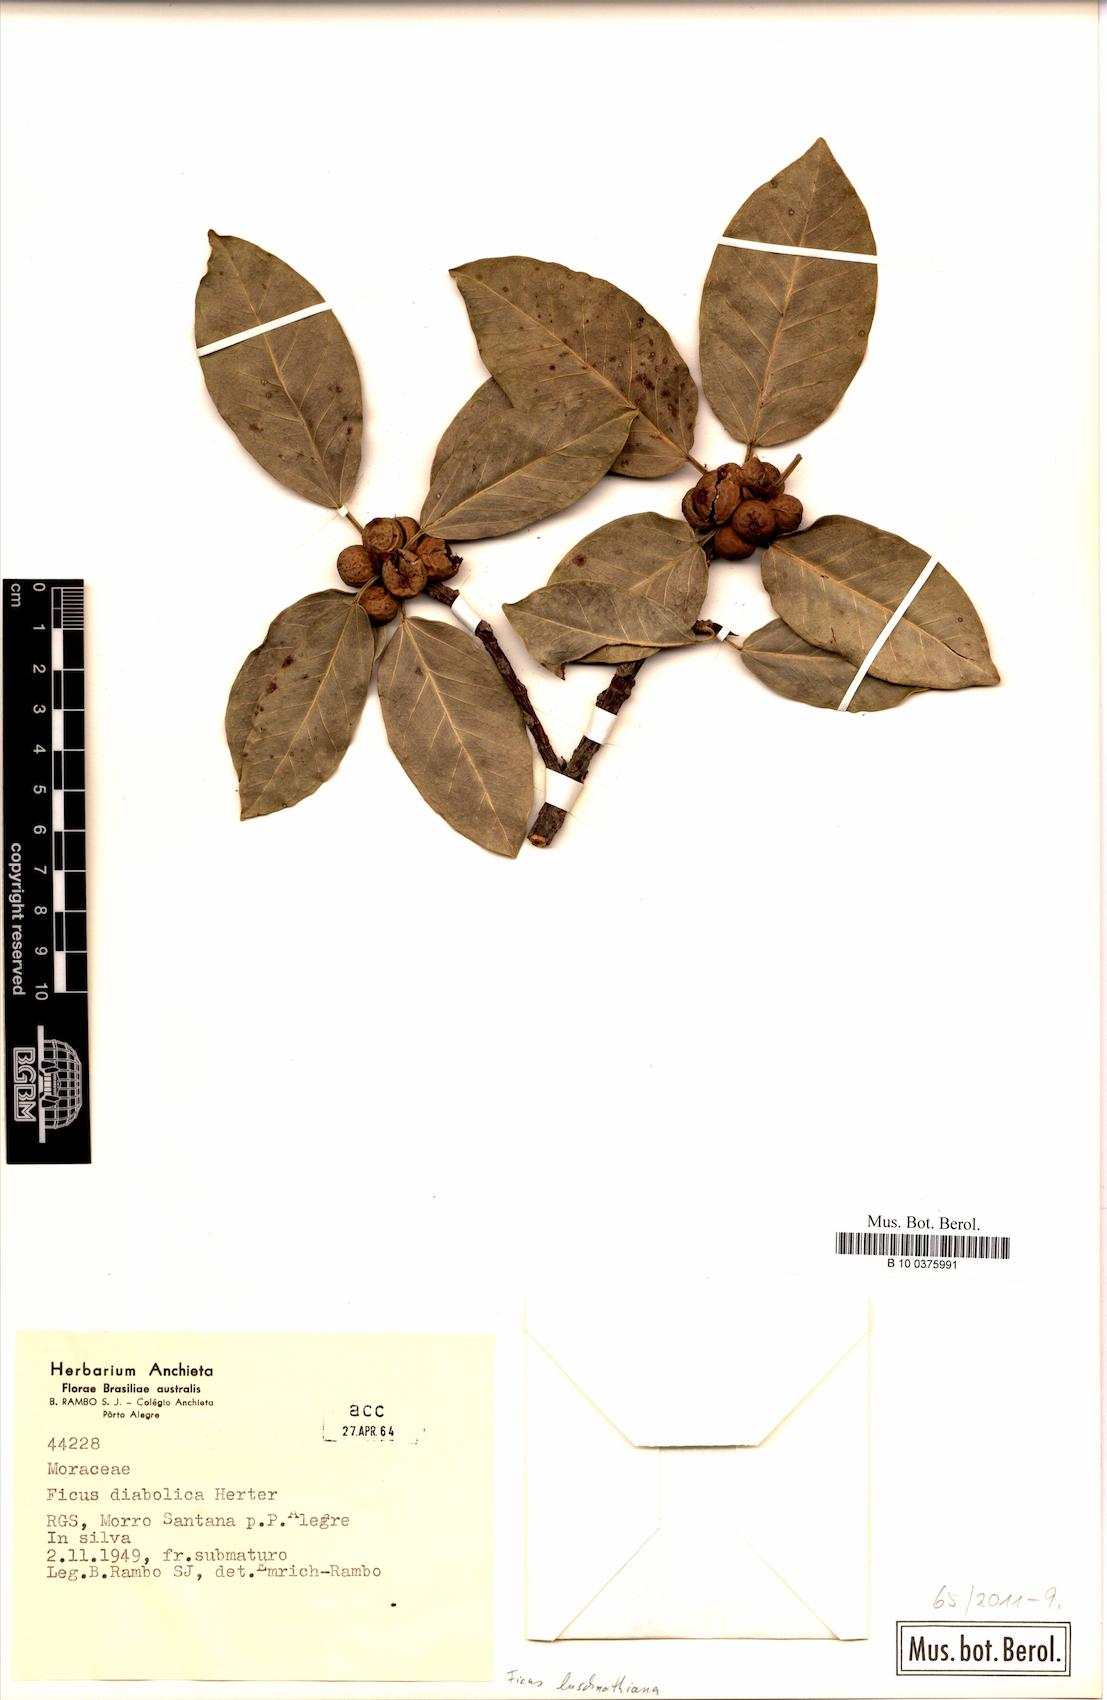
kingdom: Plantae
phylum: Tracheophyta
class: Magnoliopsida
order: Rosales
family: Moraceae
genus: Ficus
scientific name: Ficus luschnathiana
